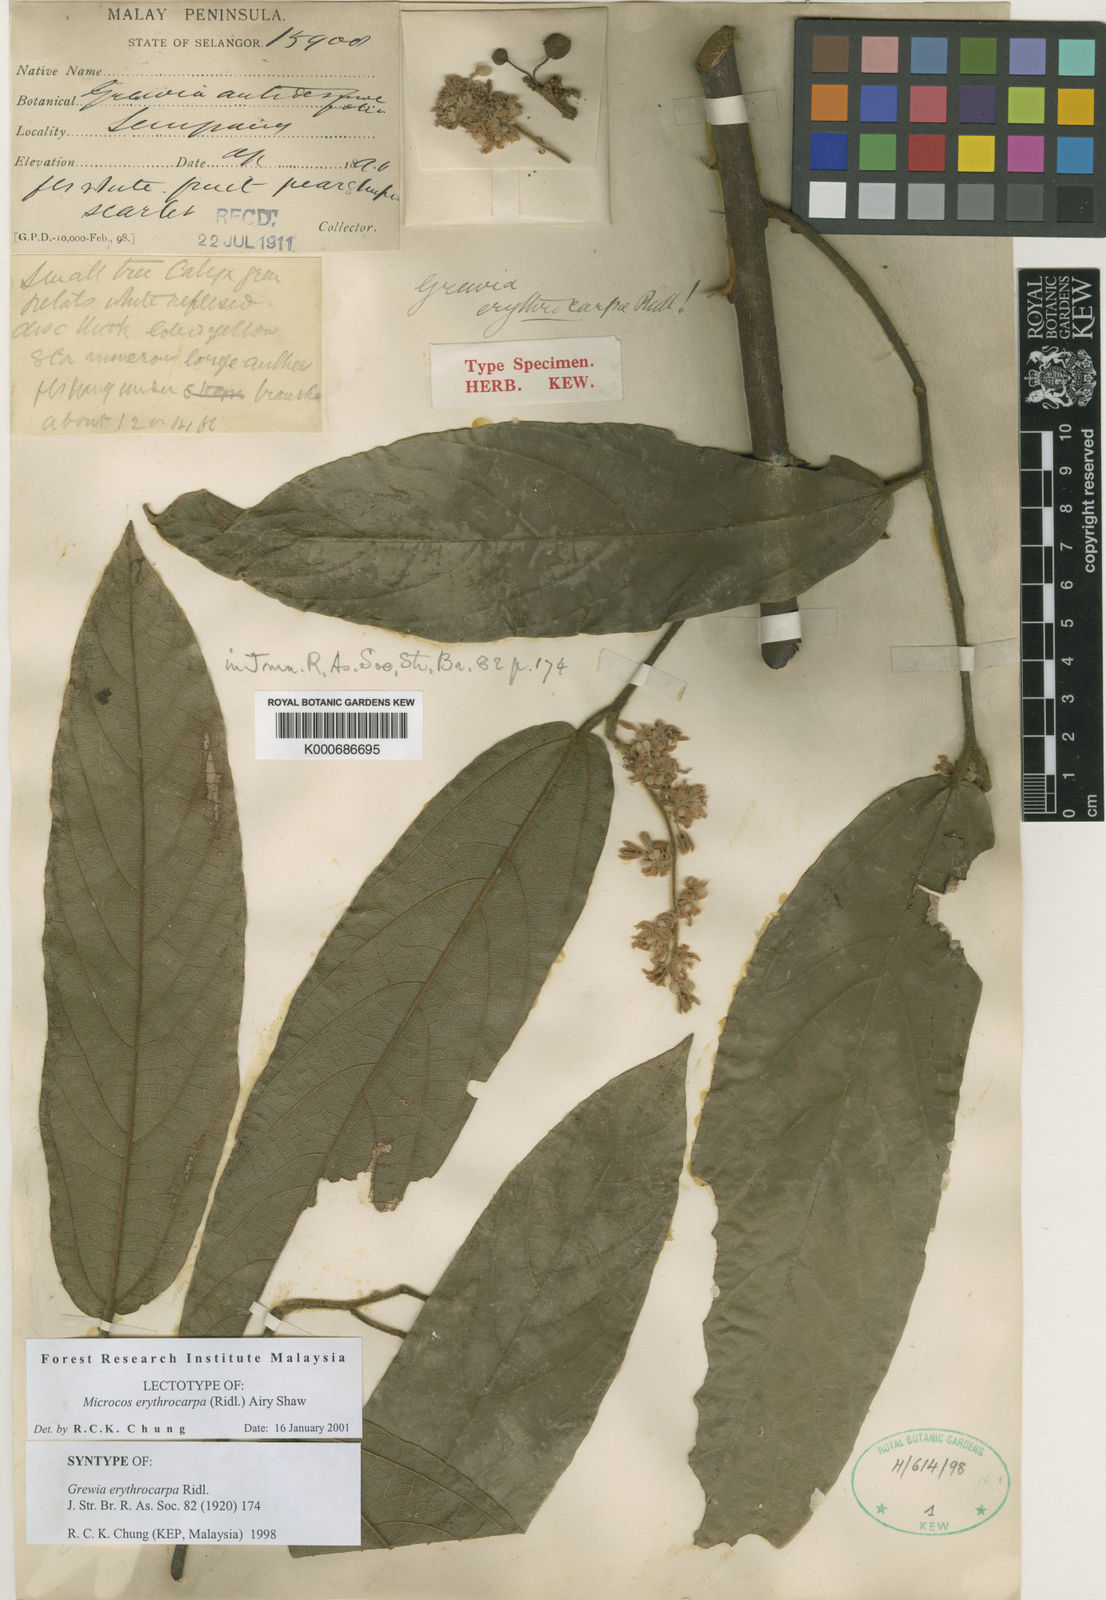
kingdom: Plantae
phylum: Tracheophyta
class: Magnoliopsida
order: Malvales
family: Malvaceae
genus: Microcos
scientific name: Microcos erythrocarpa
